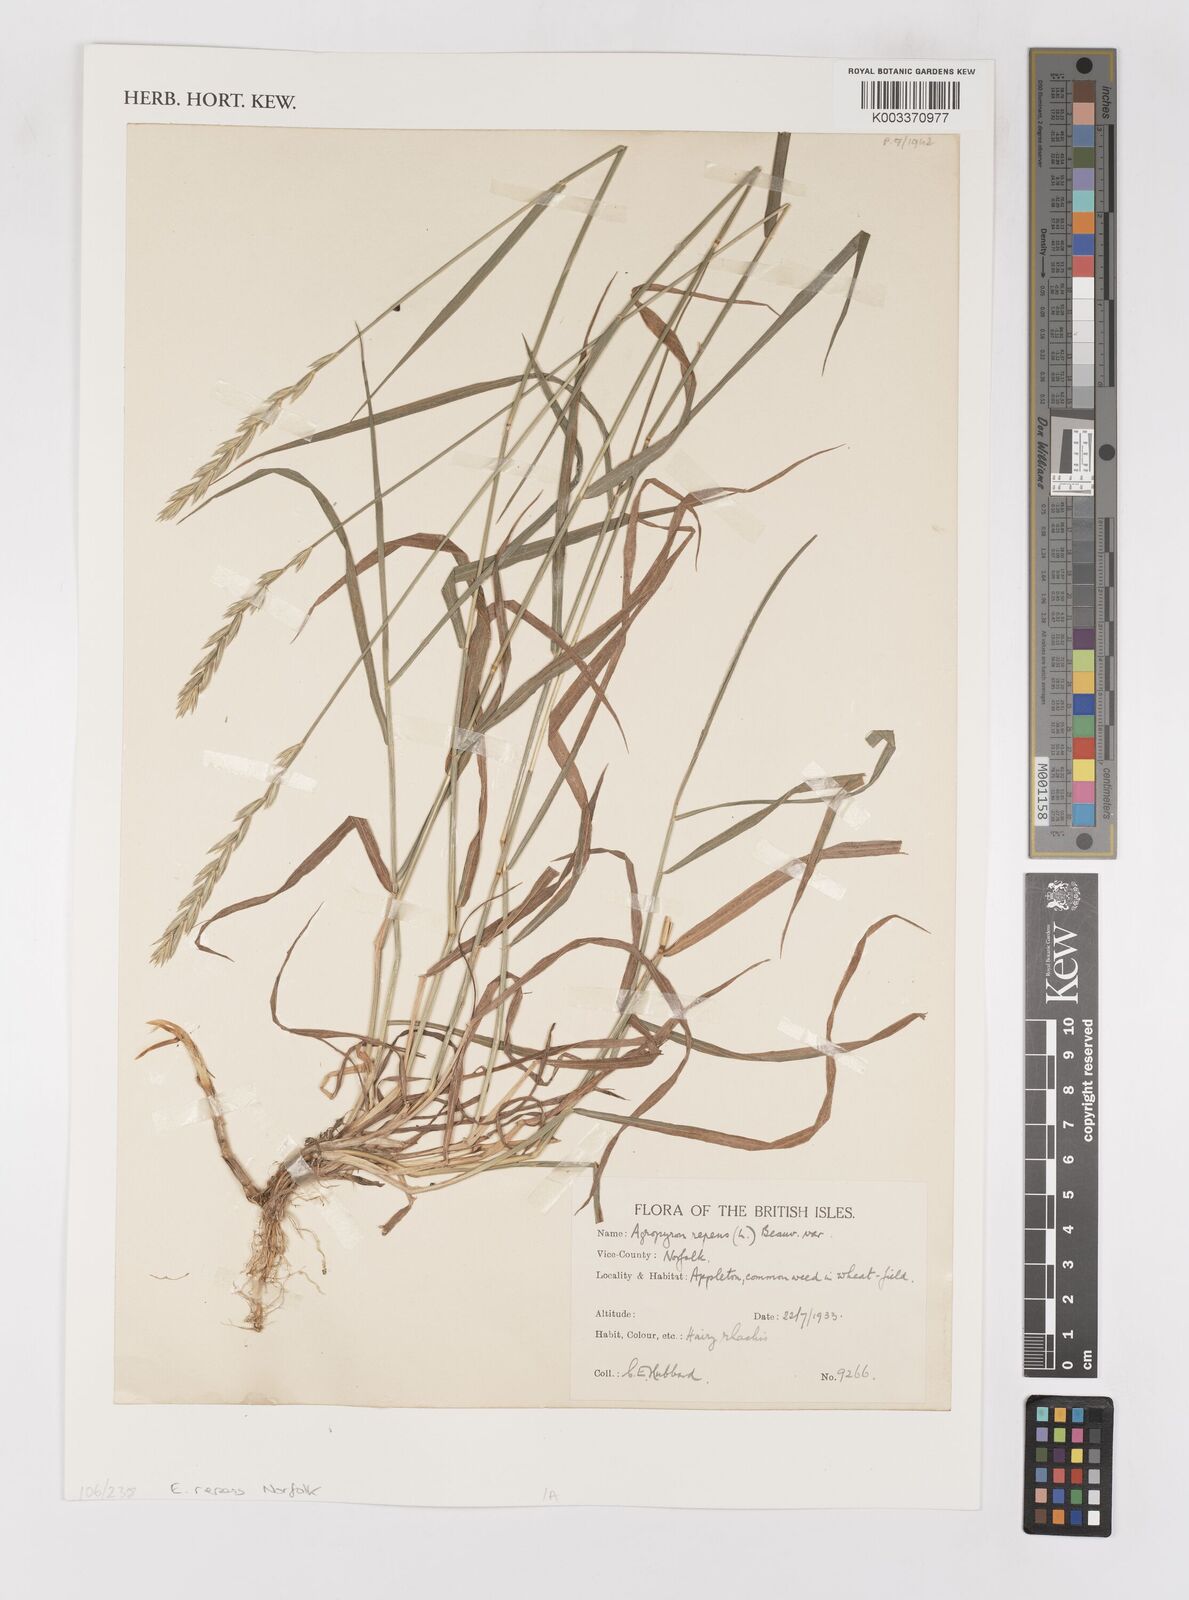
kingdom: Plantae
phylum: Tracheophyta
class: Liliopsida
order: Poales
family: Poaceae
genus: Elymus
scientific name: Elymus repens
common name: Quackgrass
